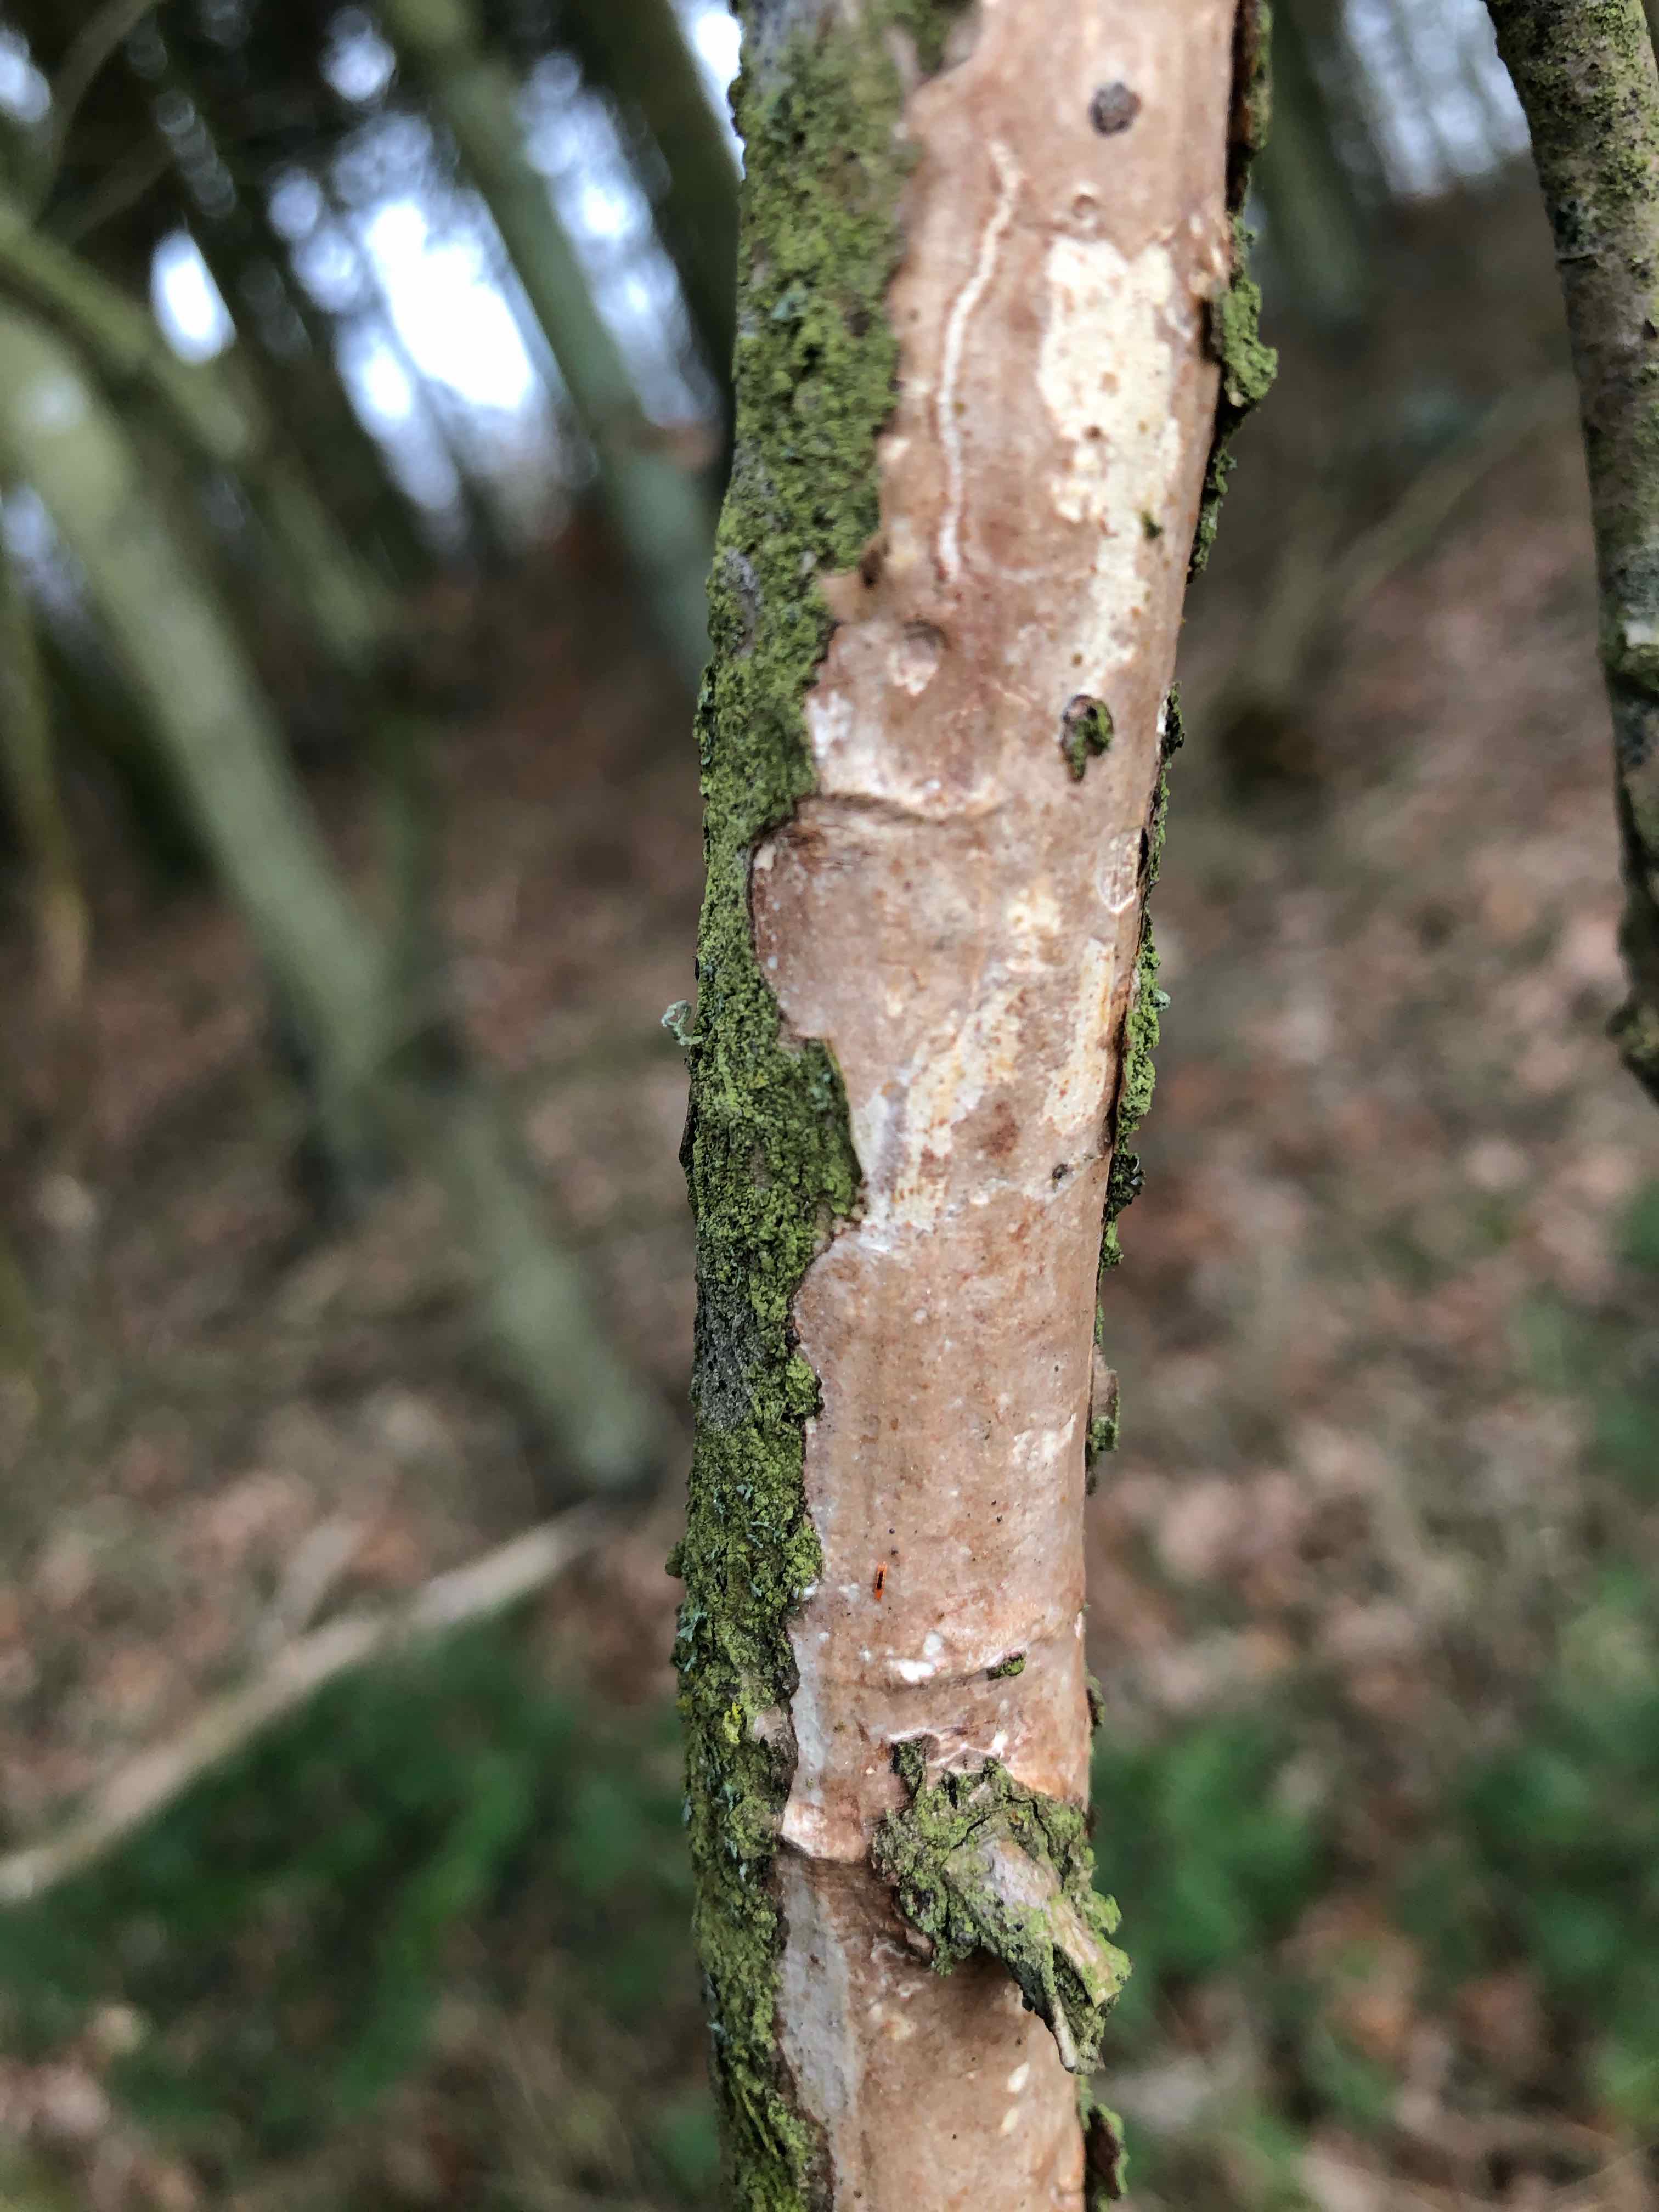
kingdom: Fungi
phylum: Basidiomycota
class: Agaricomycetes
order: Corticiales
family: Vuilleminiaceae
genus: Vuilleminia
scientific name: Vuilleminia comedens
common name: almindelig barksprænger
